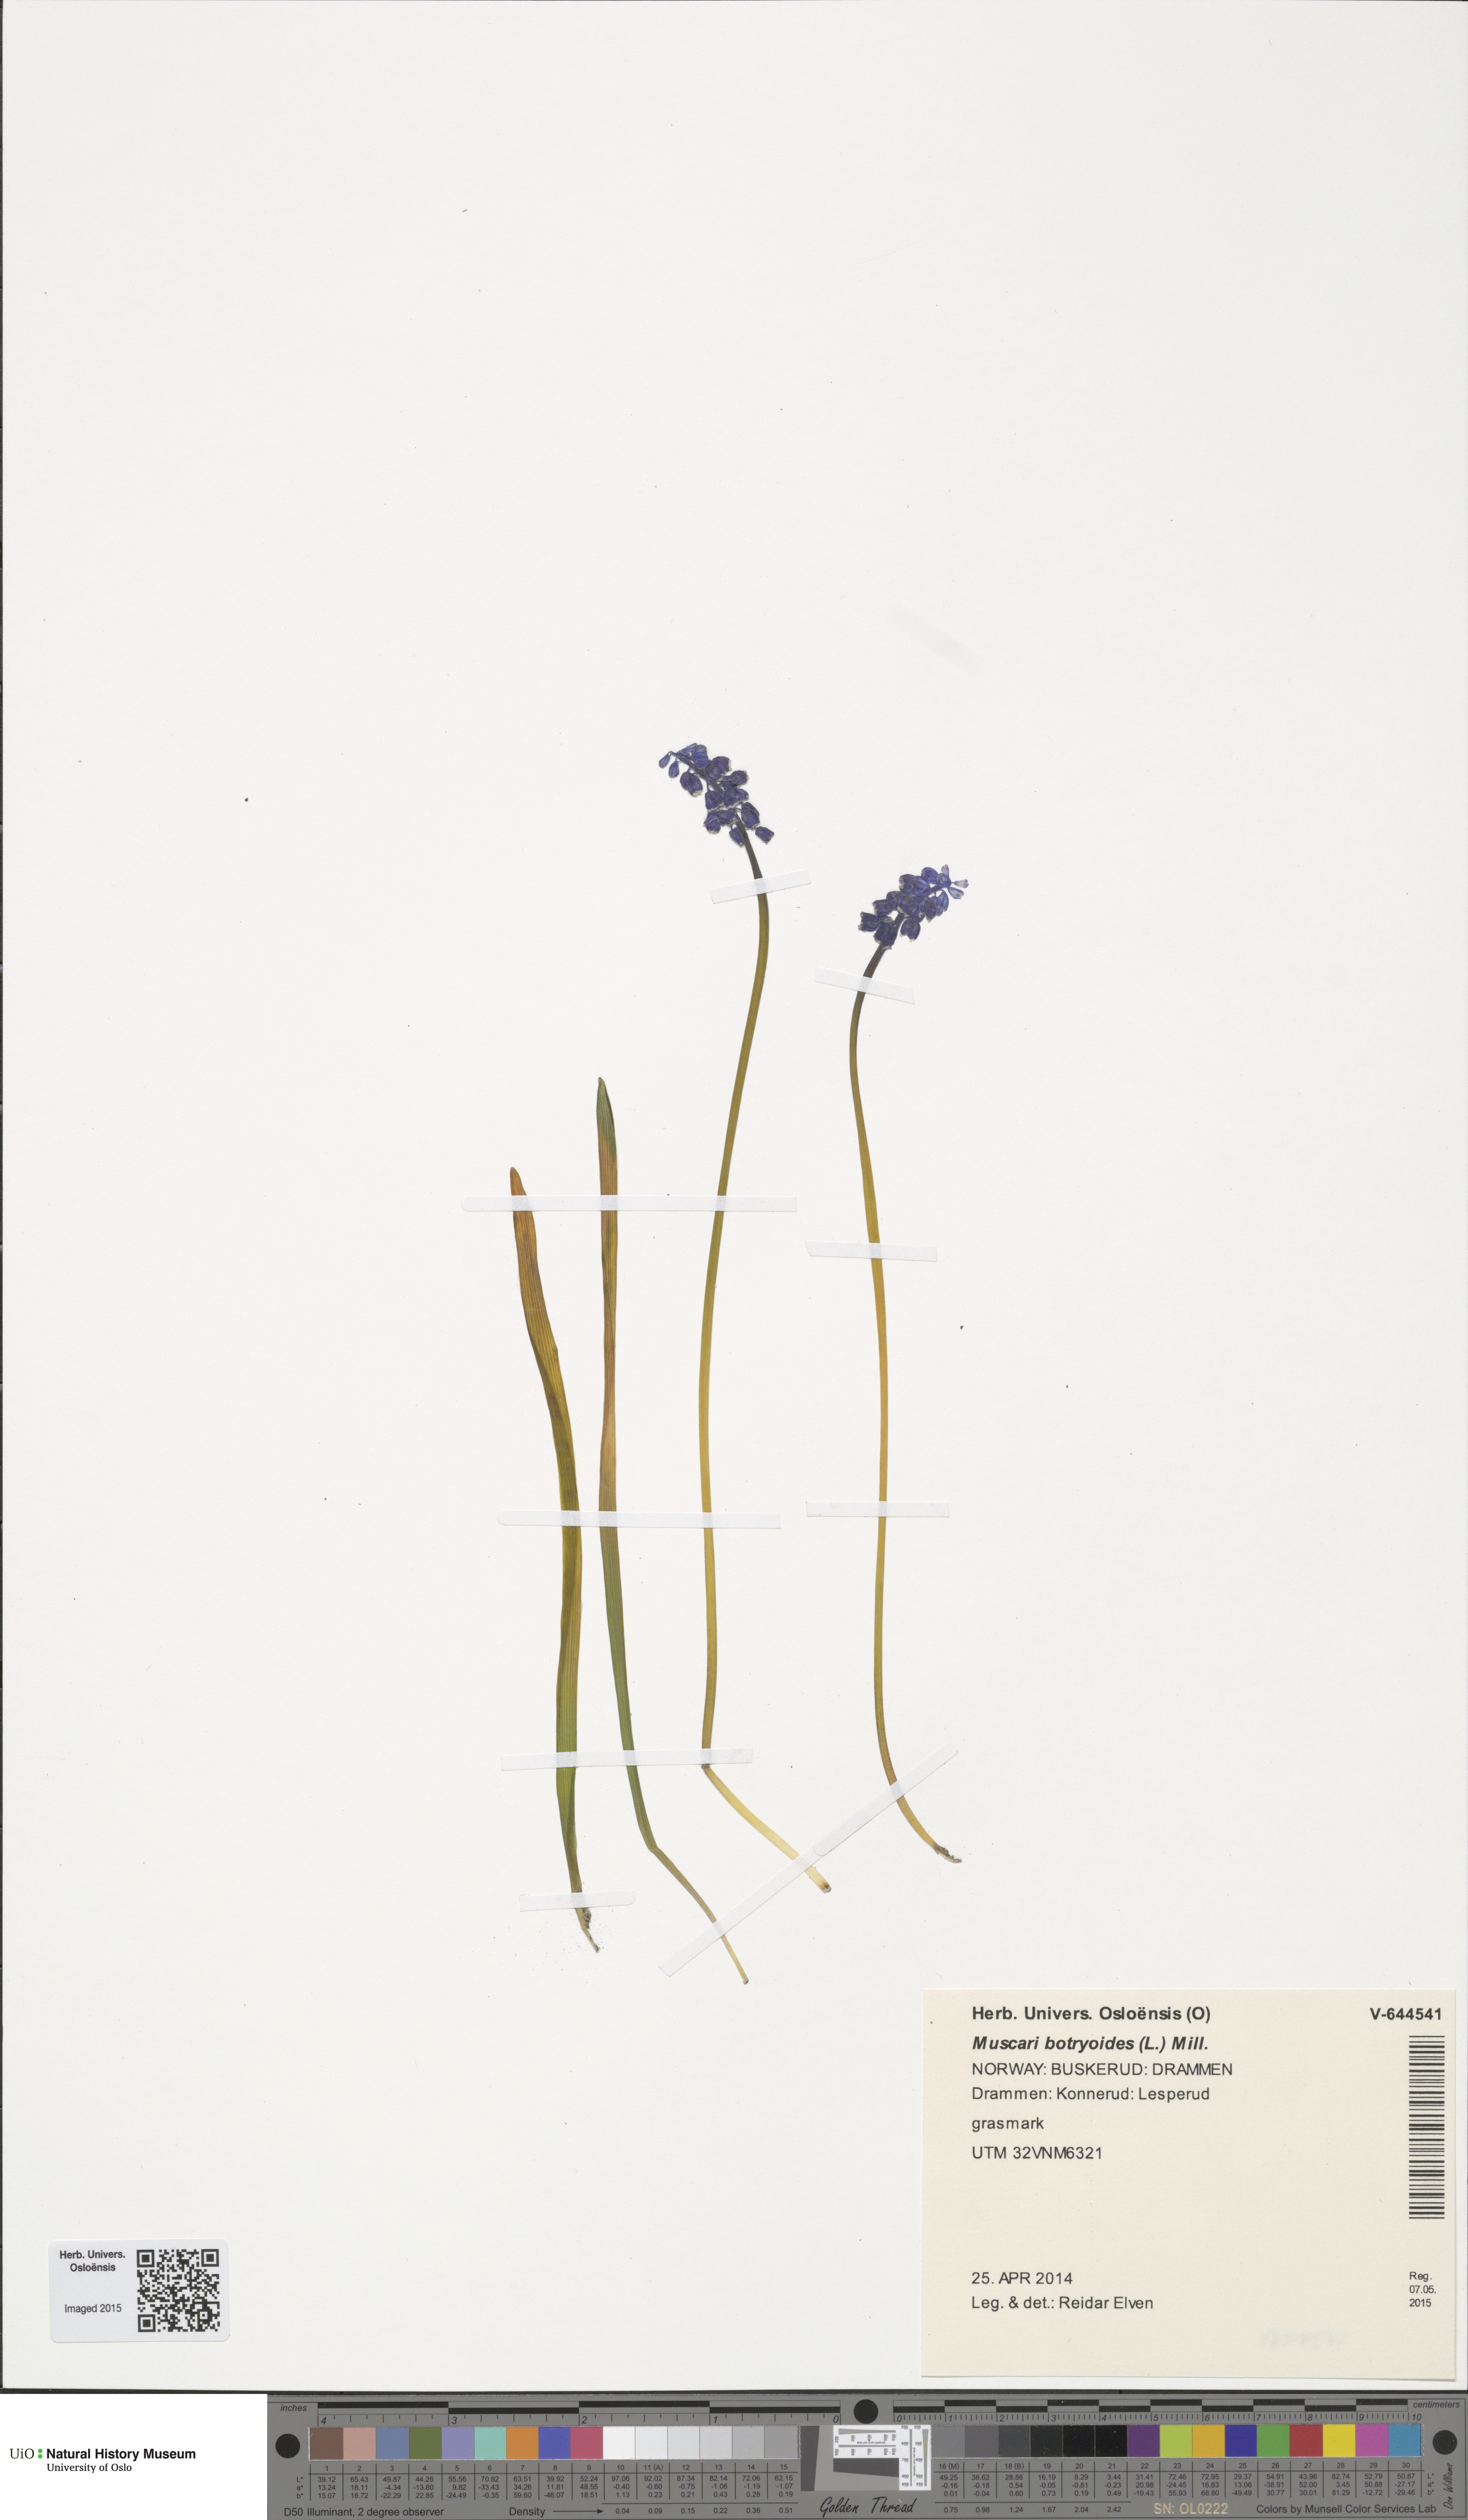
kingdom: Plantae
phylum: Tracheophyta
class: Liliopsida
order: Asparagales
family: Asparagaceae
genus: Muscari
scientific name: Muscari botryoides
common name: Compact grape-hyacinth
